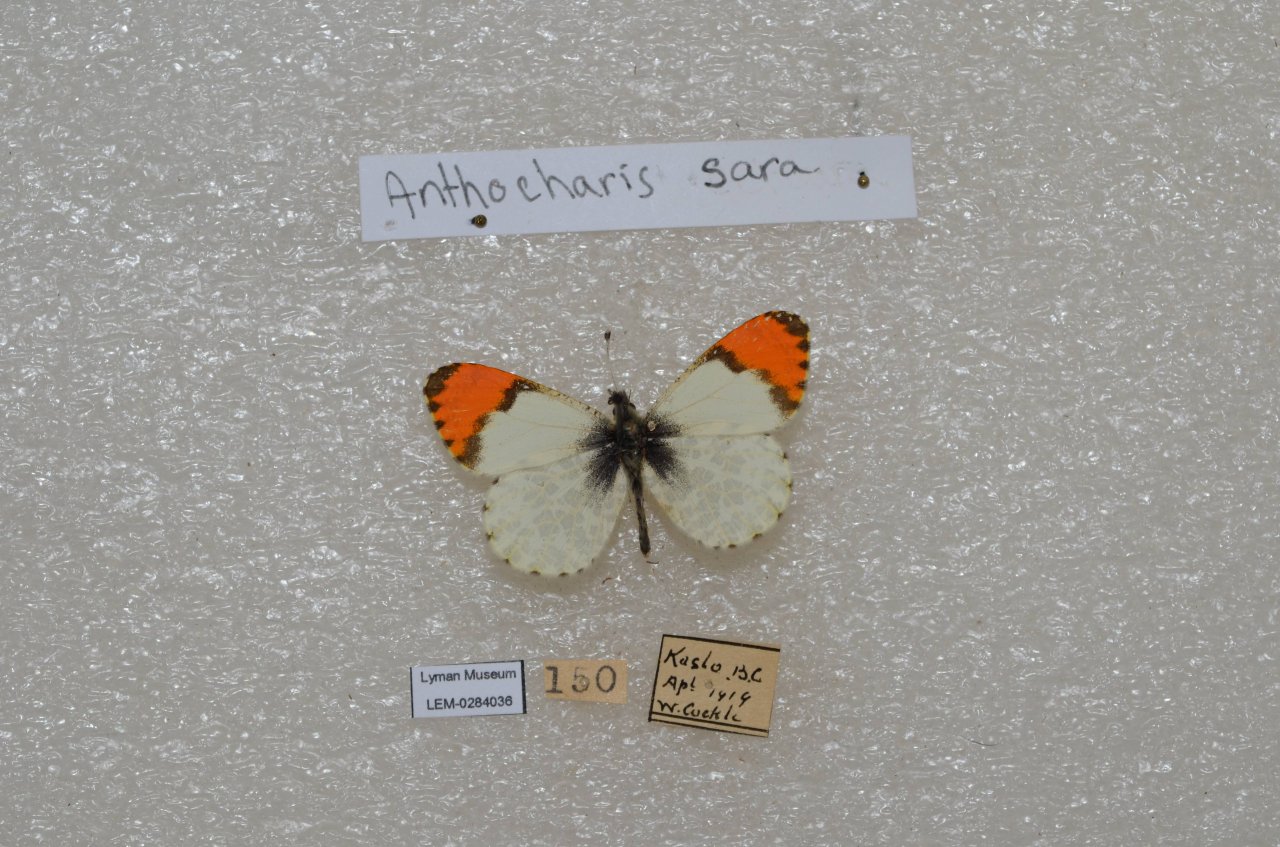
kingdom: Animalia
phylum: Arthropoda
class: Insecta
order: Lepidoptera
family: Pieridae
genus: Anthocharis
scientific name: Anthocharis sara
